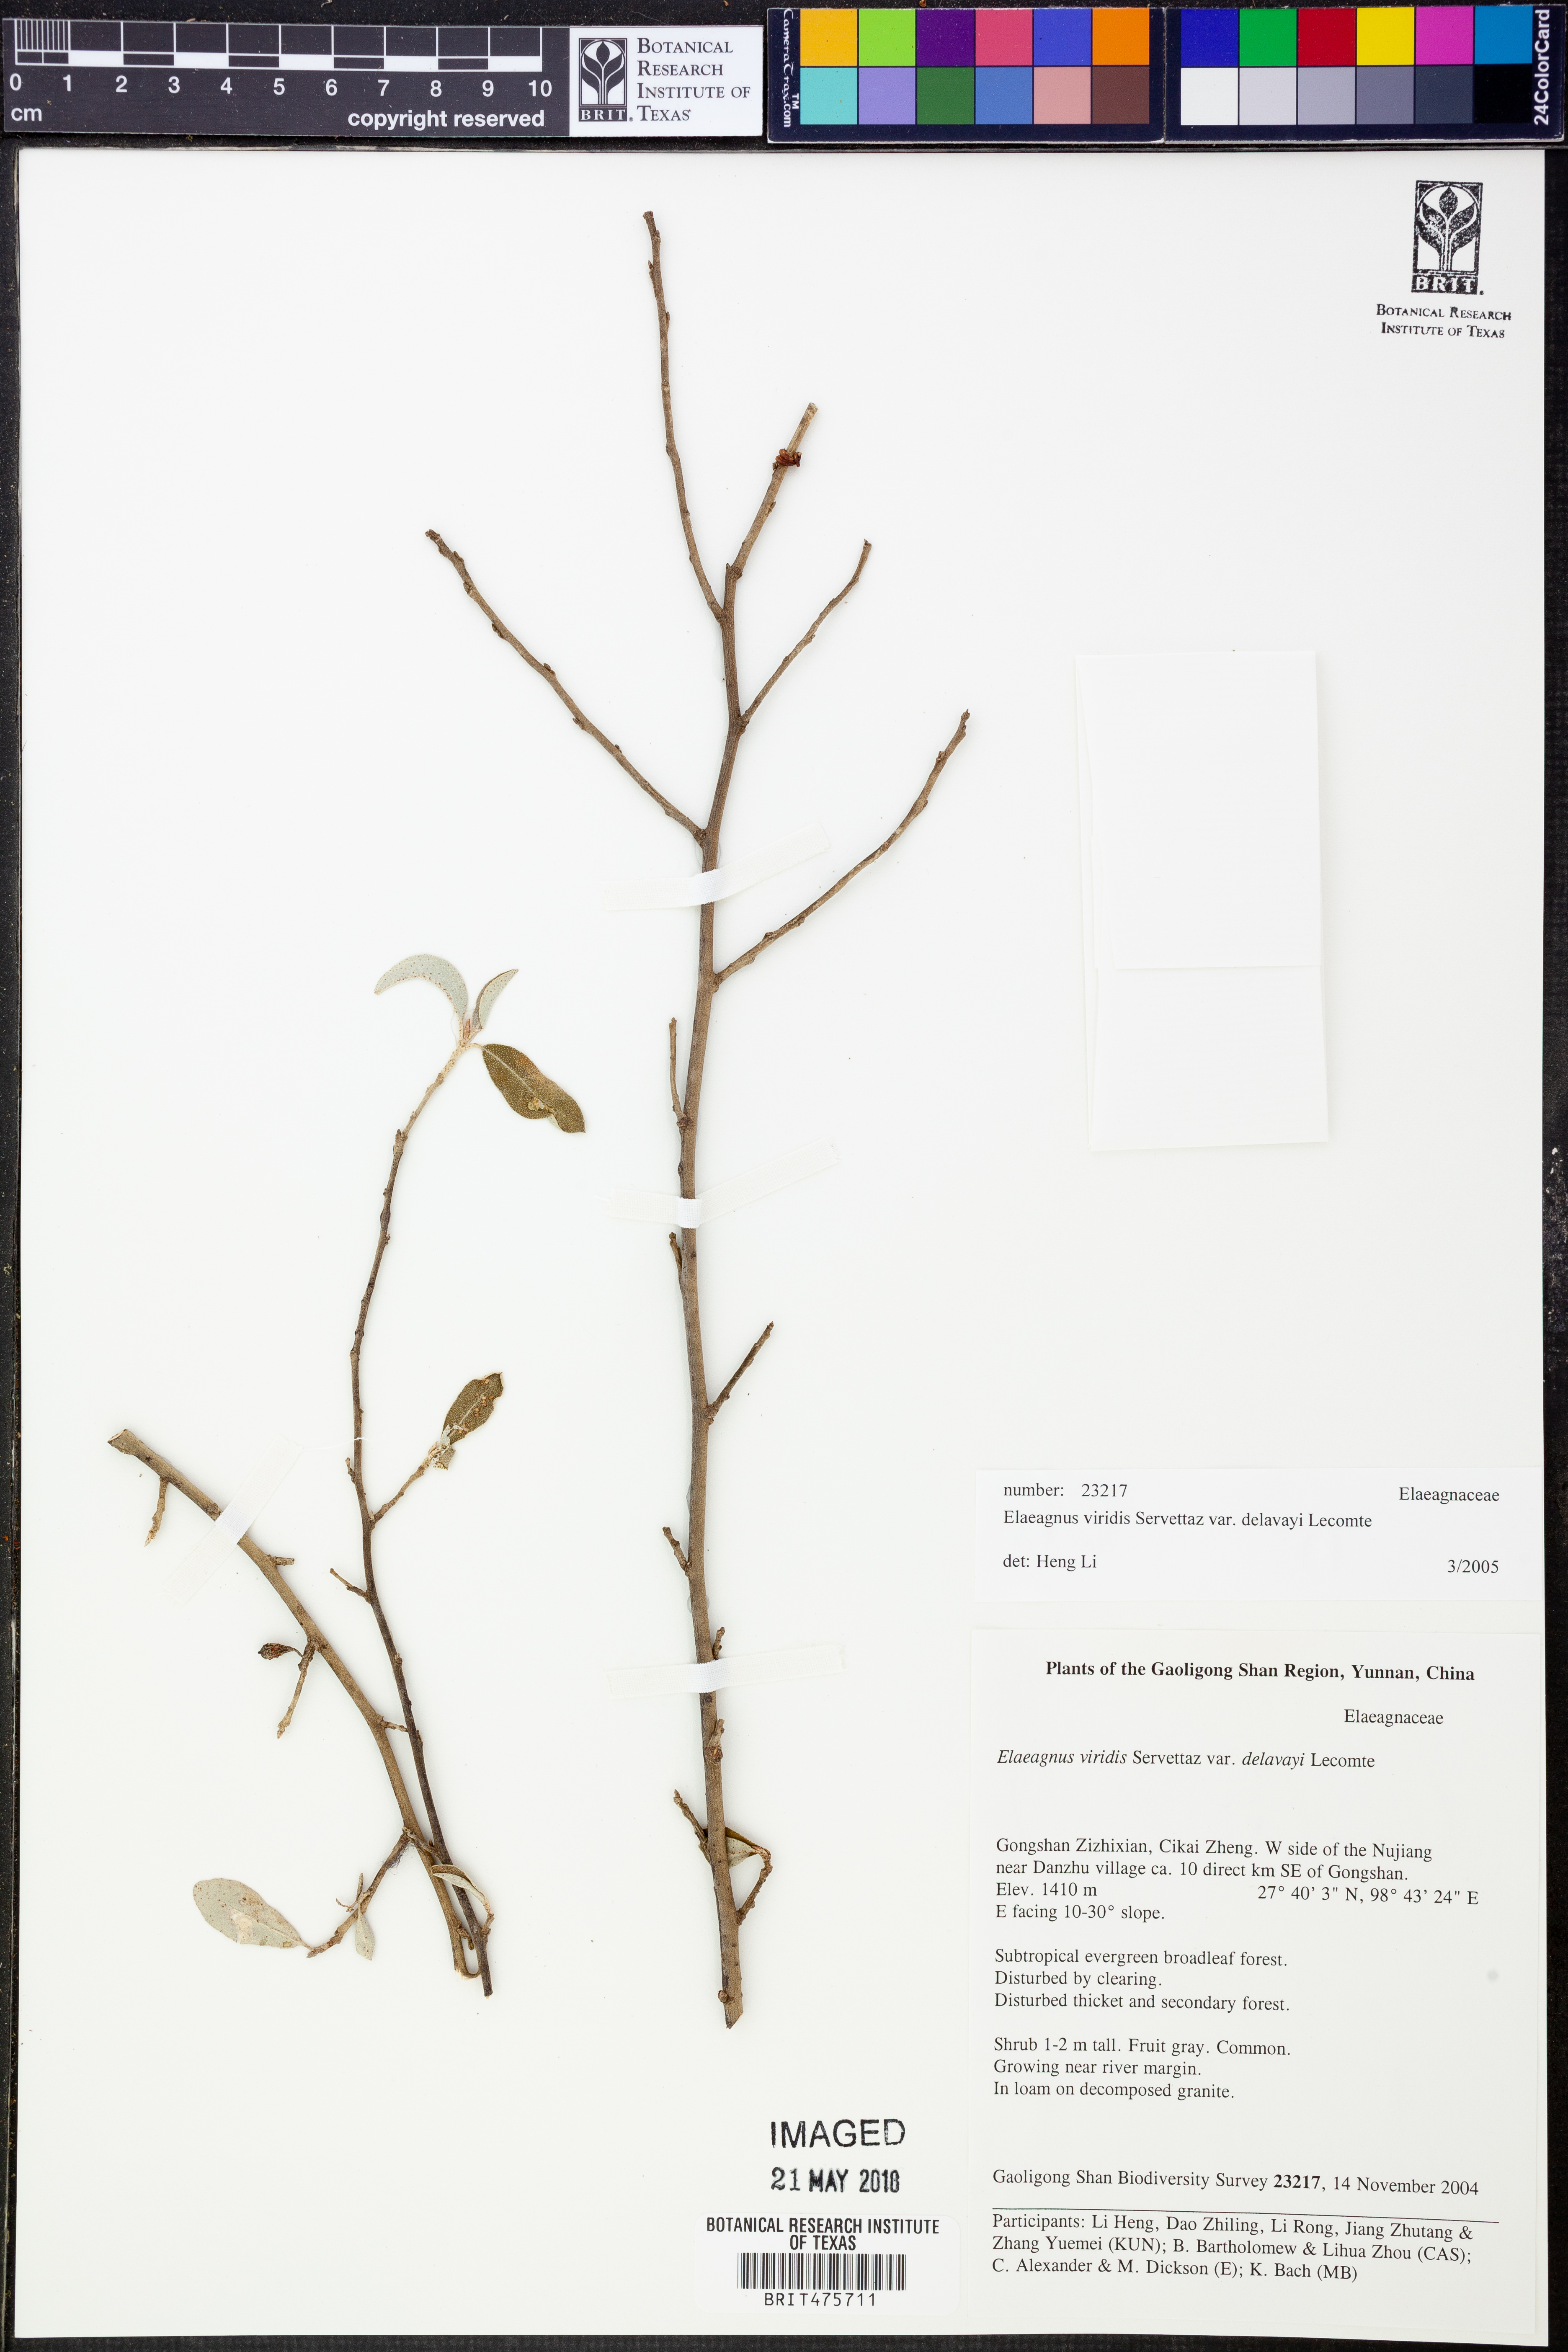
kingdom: Plantae
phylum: Tracheophyta
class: Magnoliopsida
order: Rosales
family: Elaeagnaceae
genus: Elaeagnus
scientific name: Elaeagnus viridis
